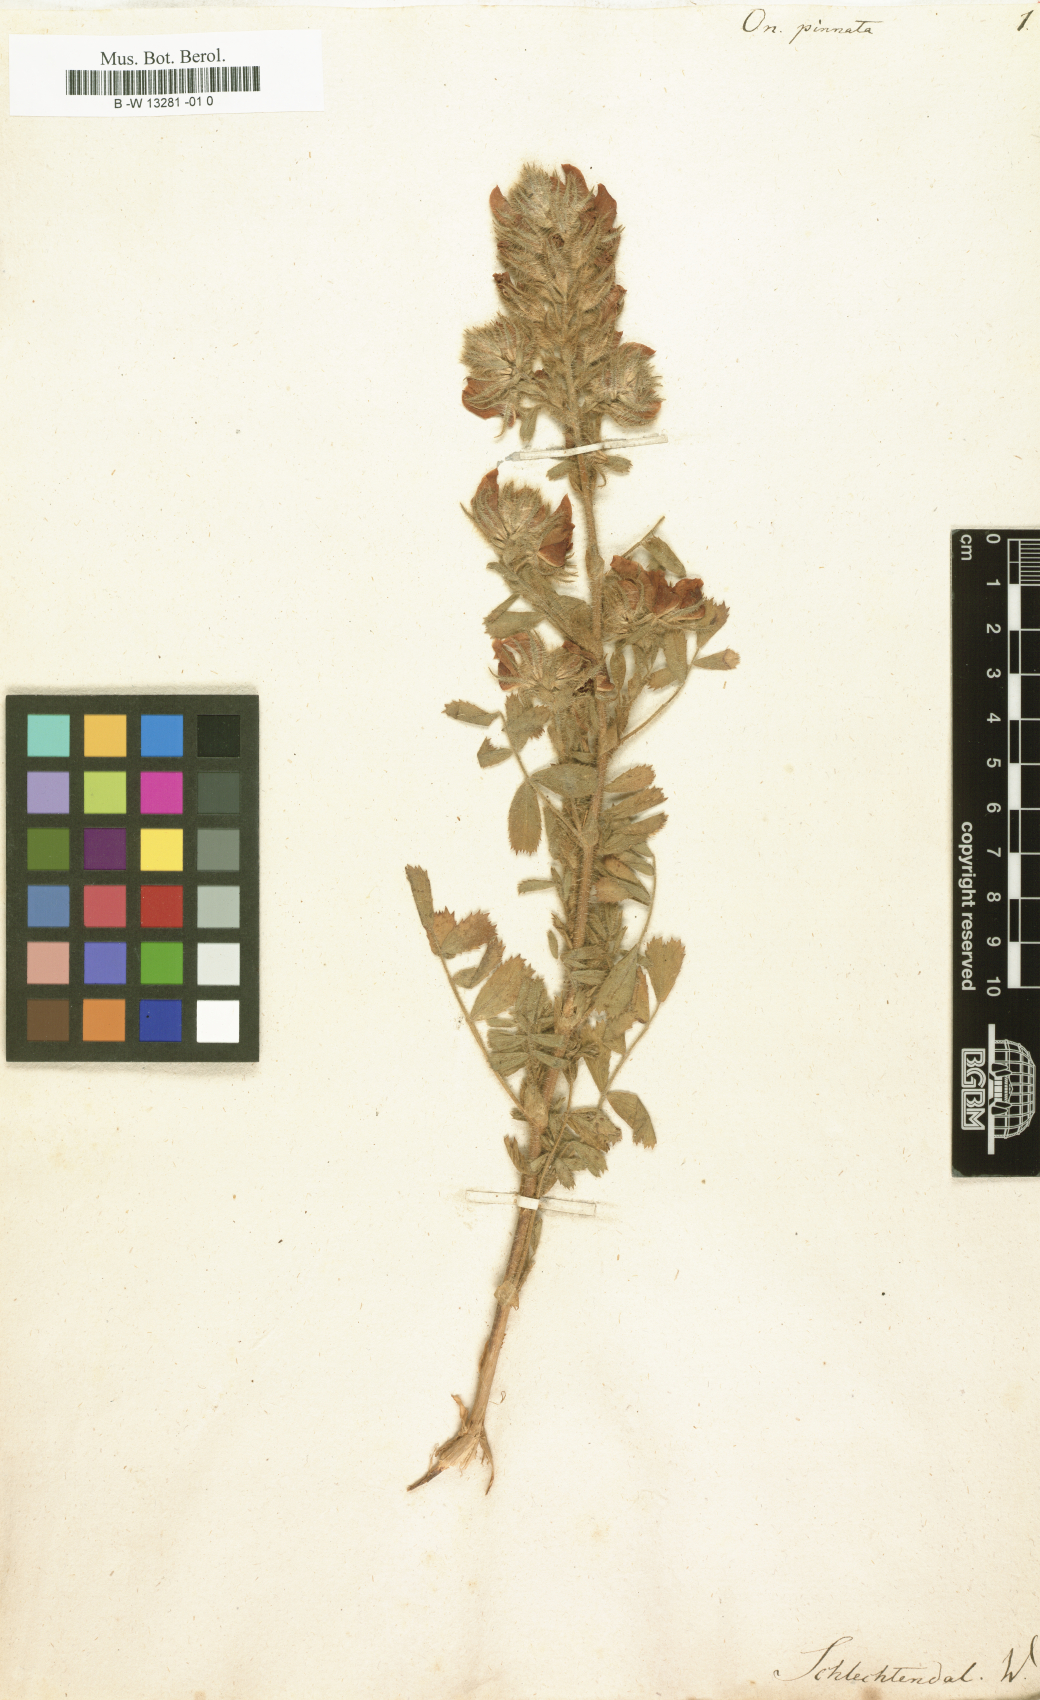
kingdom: Plantae
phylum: Tracheophyta
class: Magnoliopsida
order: Fabales
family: Fabaceae
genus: Ononis
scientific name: Ononis pinnata
